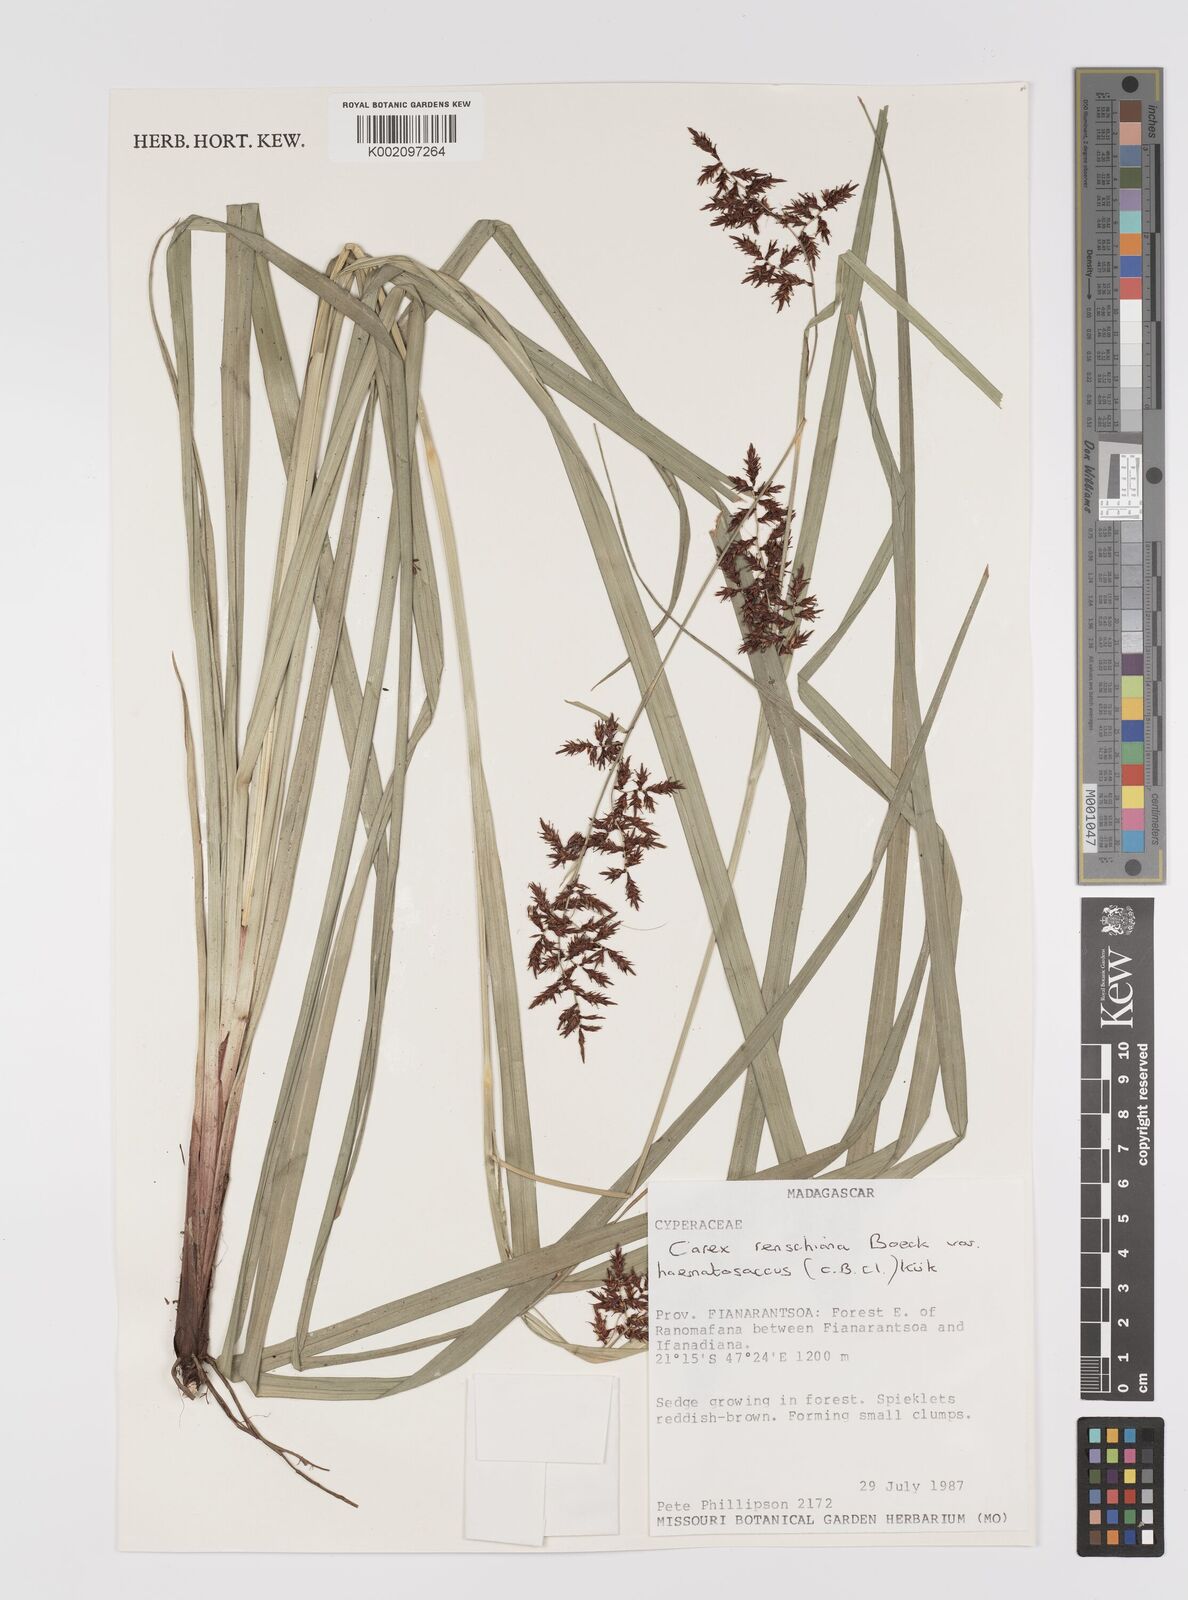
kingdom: Plantae
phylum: Tracheophyta
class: Liliopsida
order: Poales
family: Cyperaceae
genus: Carex
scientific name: Carex renschiana
